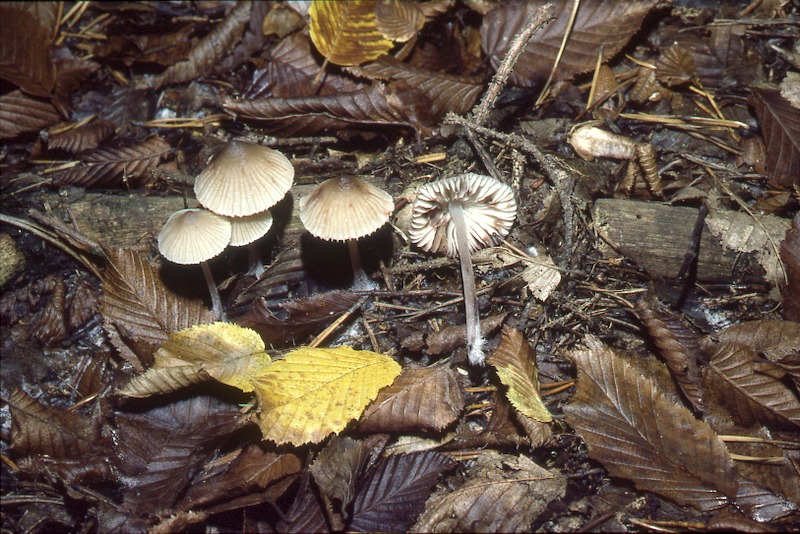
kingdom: Fungi
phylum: Basidiomycota
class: Agaricomycetes
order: Agaricales
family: Mycenaceae
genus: Mycena
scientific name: Mycena zephirus
